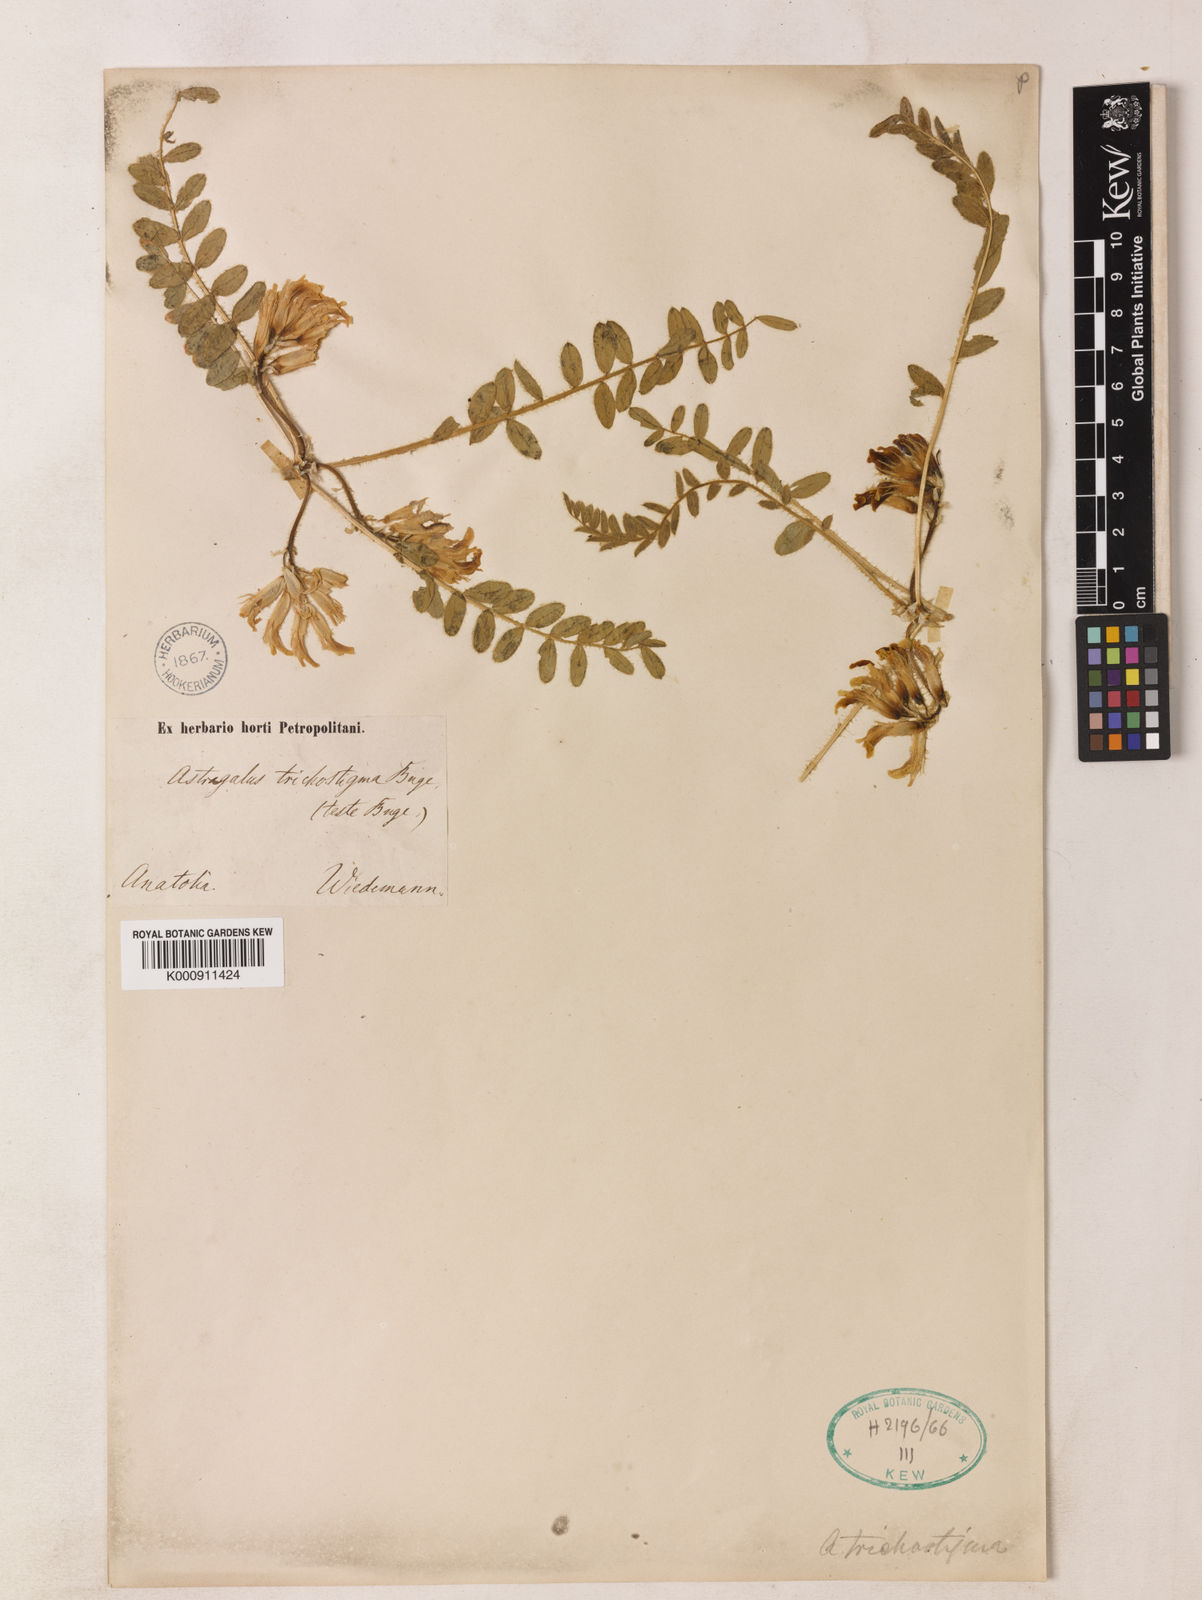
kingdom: Plantae
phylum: Tracheophyta
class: Magnoliopsida
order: Fabales
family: Fabaceae
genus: Astragalus
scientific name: Astragalus trichostigma
